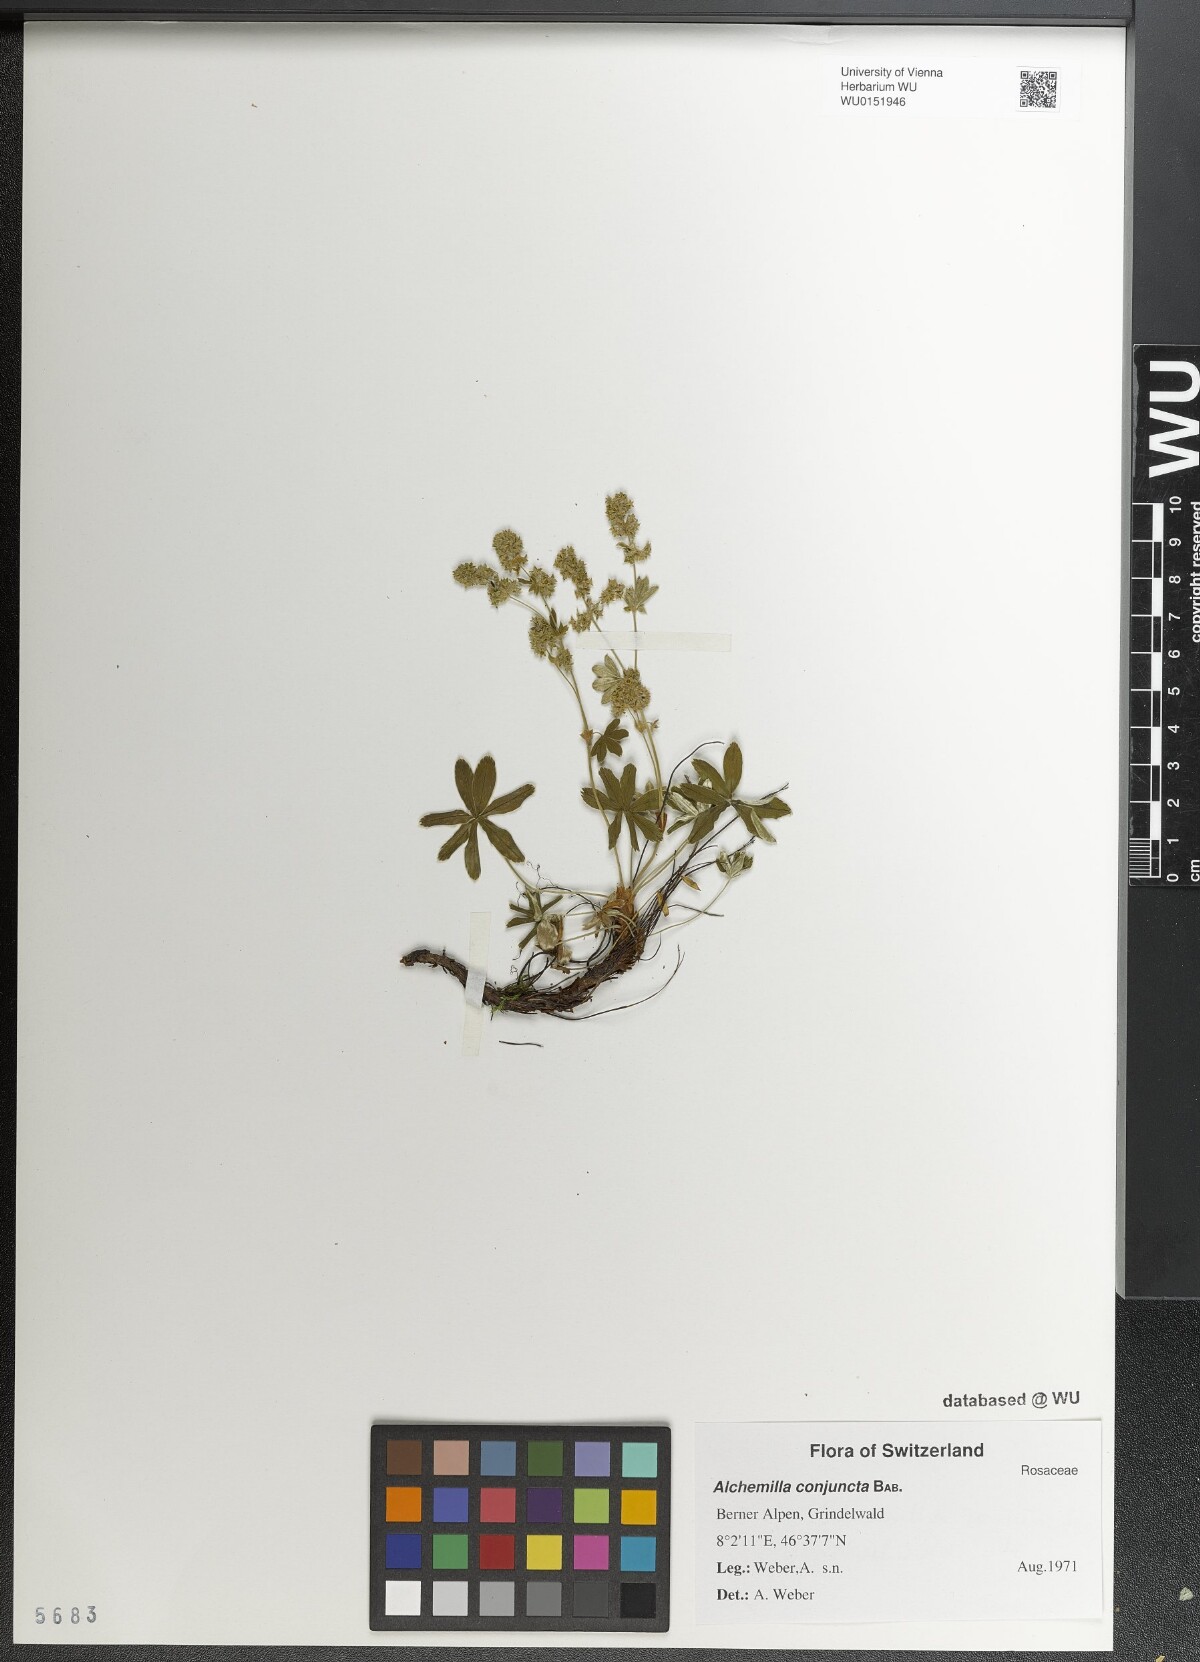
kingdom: Plantae
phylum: Tracheophyta
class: Magnoliopsida
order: Rosales
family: Rosaceae
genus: Alchemilla
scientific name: Alchemilla conjuncta
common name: Silver lady's-mantle
